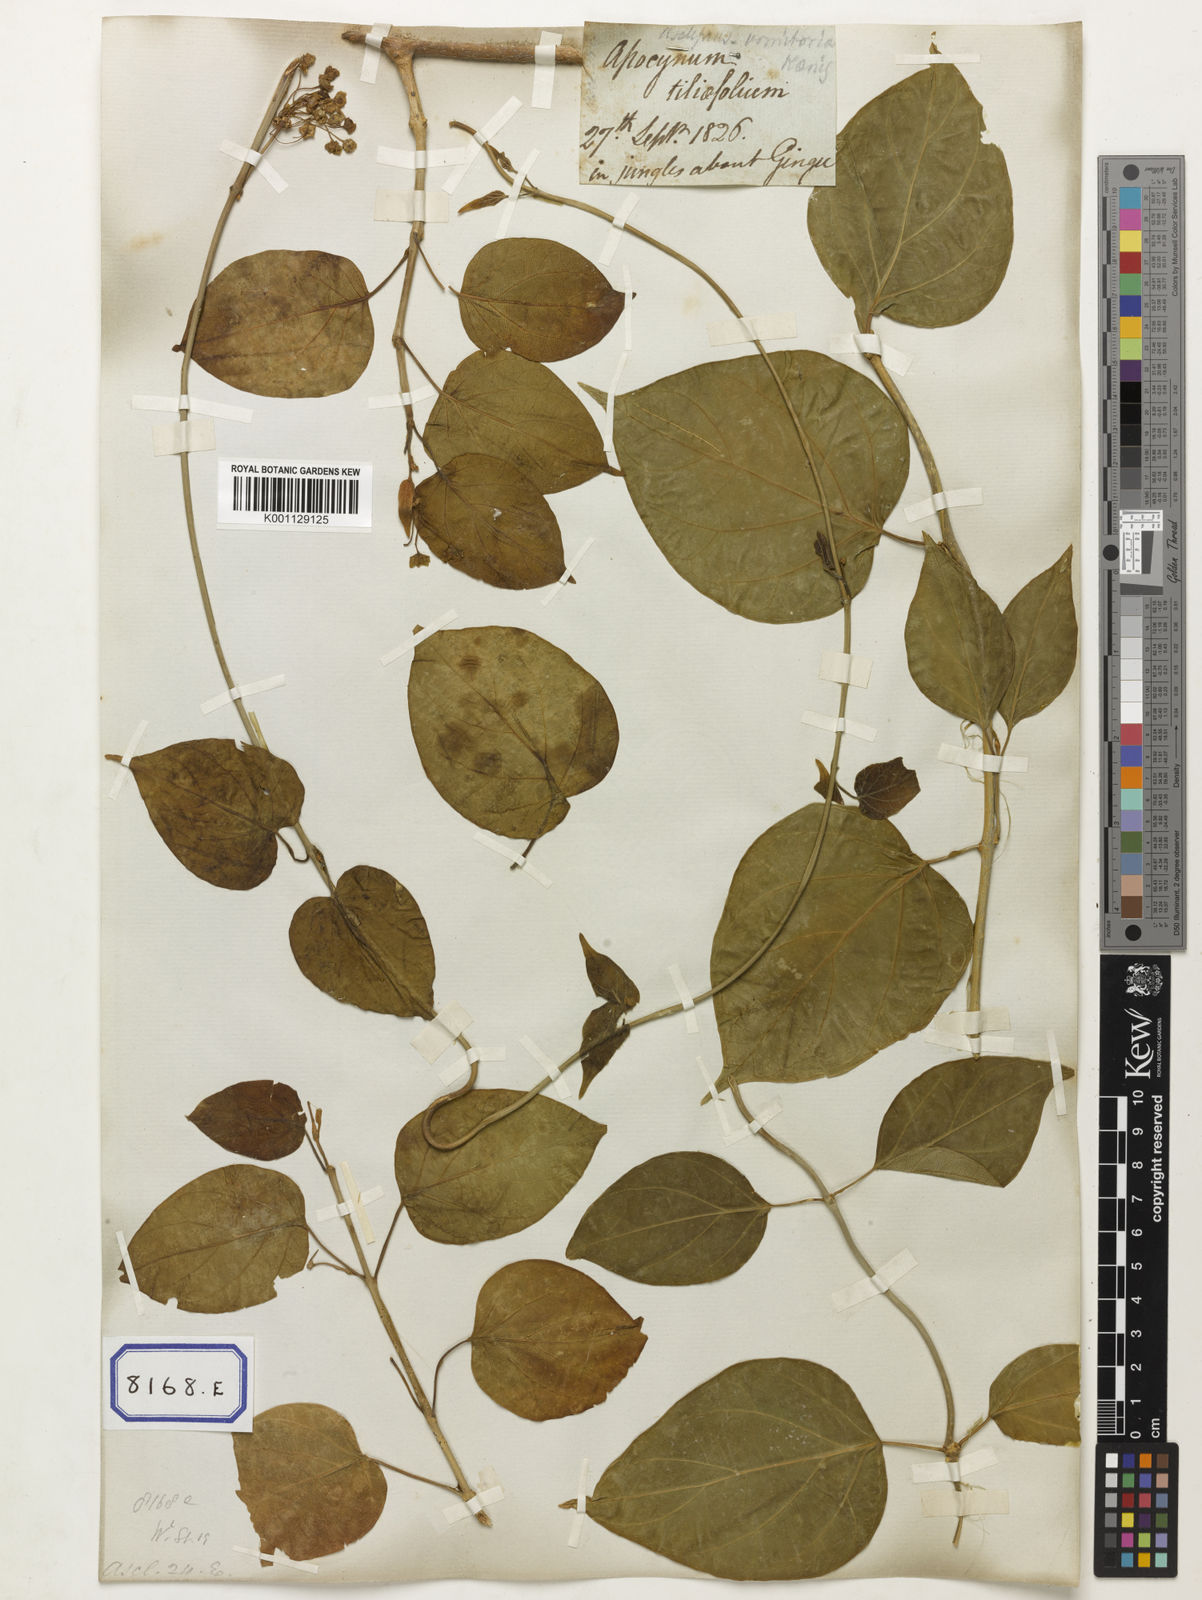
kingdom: Plantae
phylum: Tracheophyta
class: Magnoliopsida
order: Gentianales
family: Apocynaceae
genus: Stephanotis
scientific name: Stephanotis volubilis
